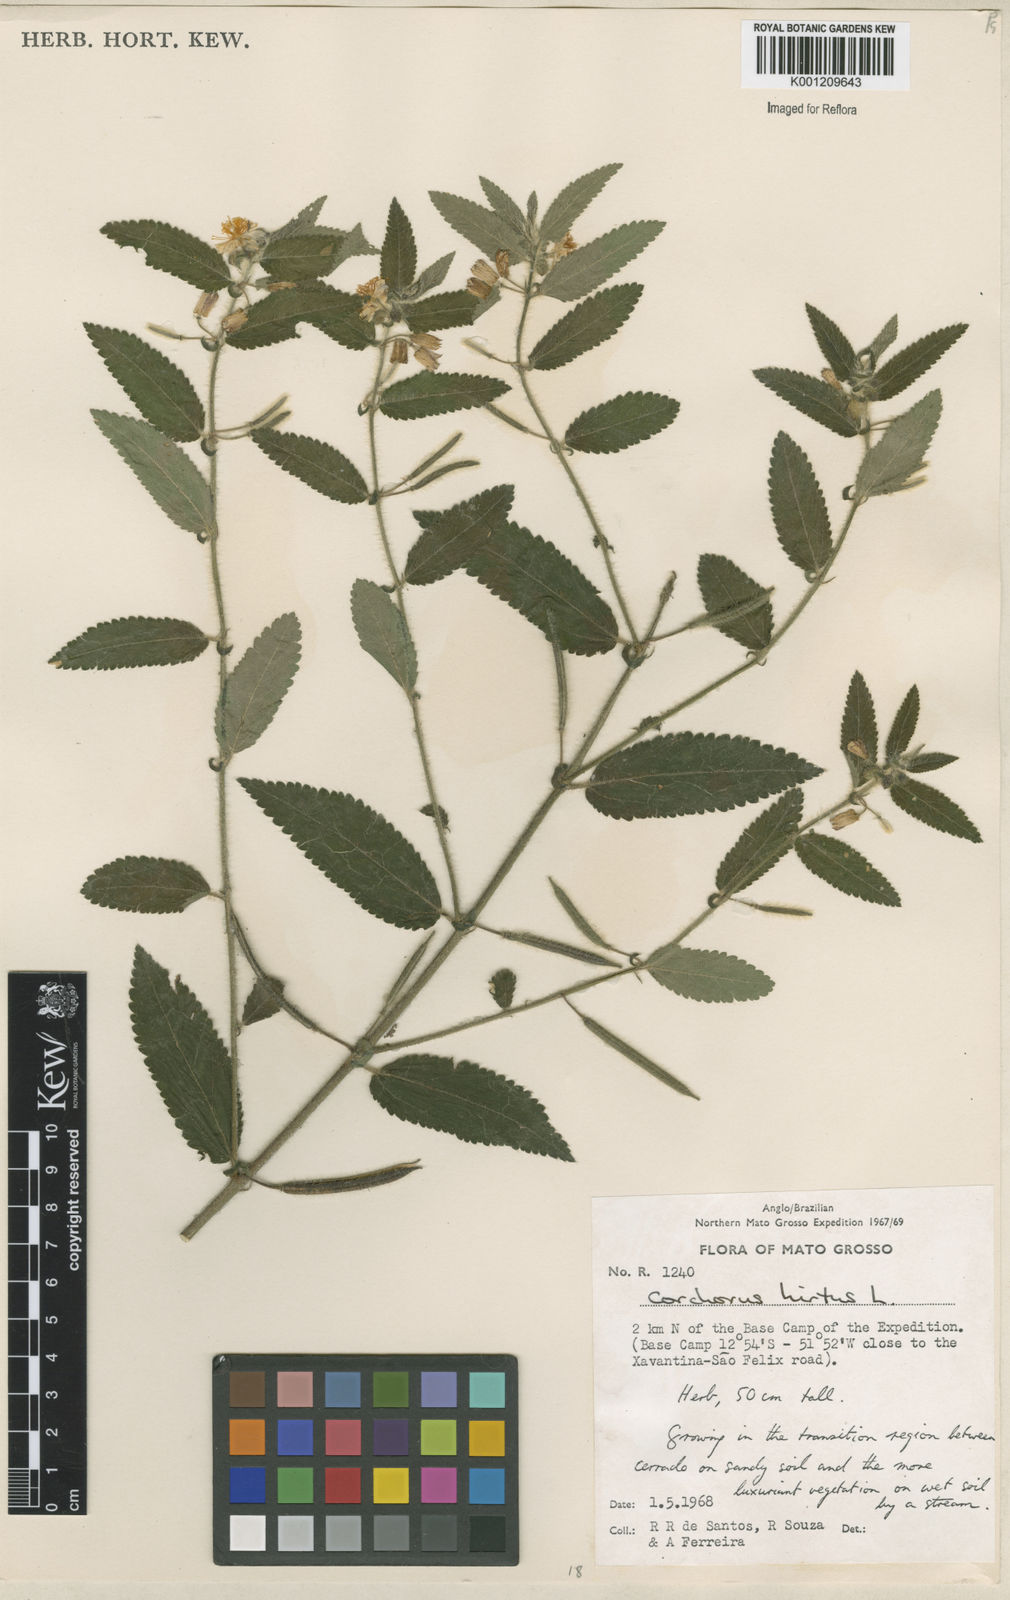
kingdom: Plantae
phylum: Tracheophyta
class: Magnoliopsida
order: Malvales
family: Malvaceae
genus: Corchorus
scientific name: Corchorus hirtus
